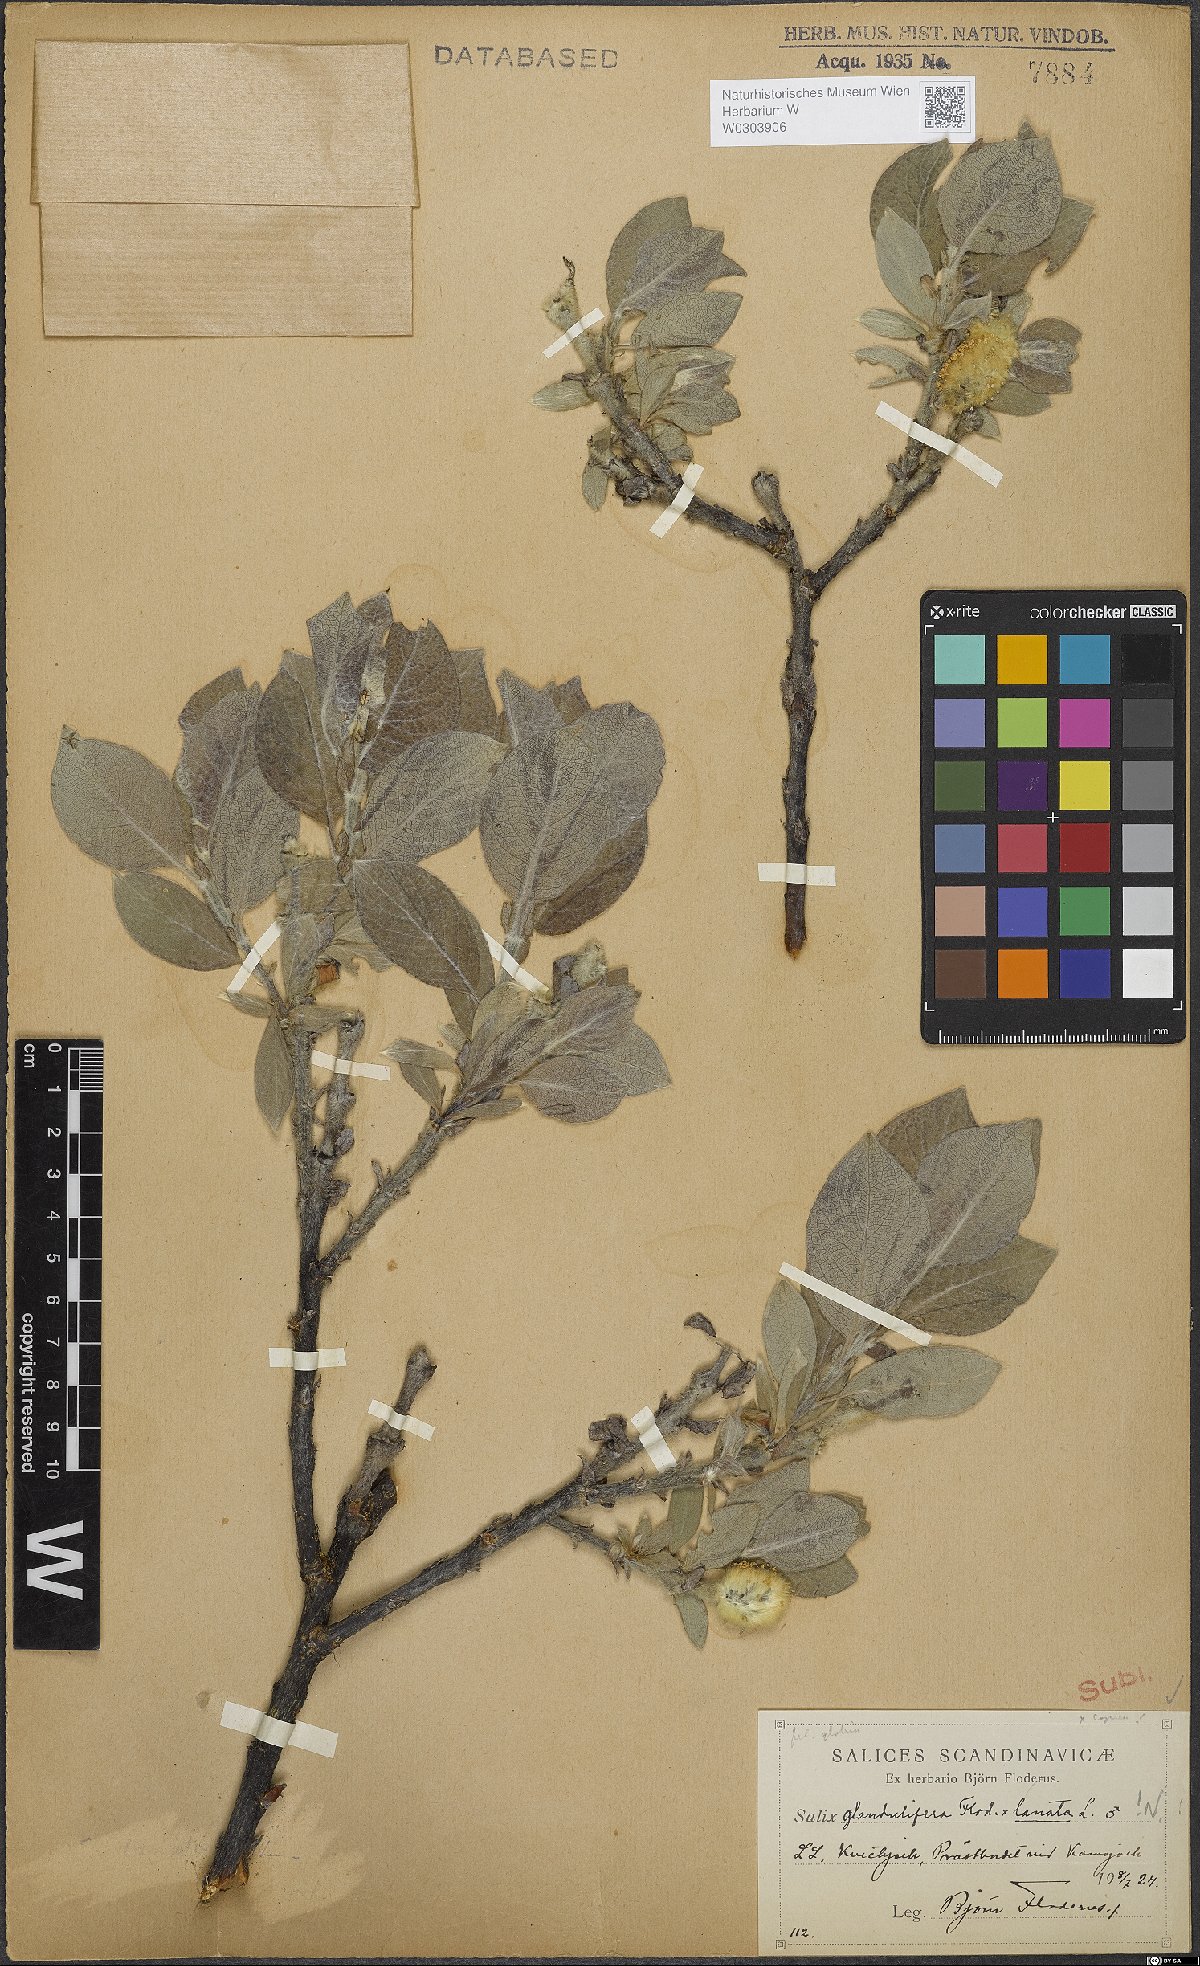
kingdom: Plantae
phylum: Tracheophyta
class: Magnoliopsida
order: Malpighiales
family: Salicaceae
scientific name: Salicaceae
